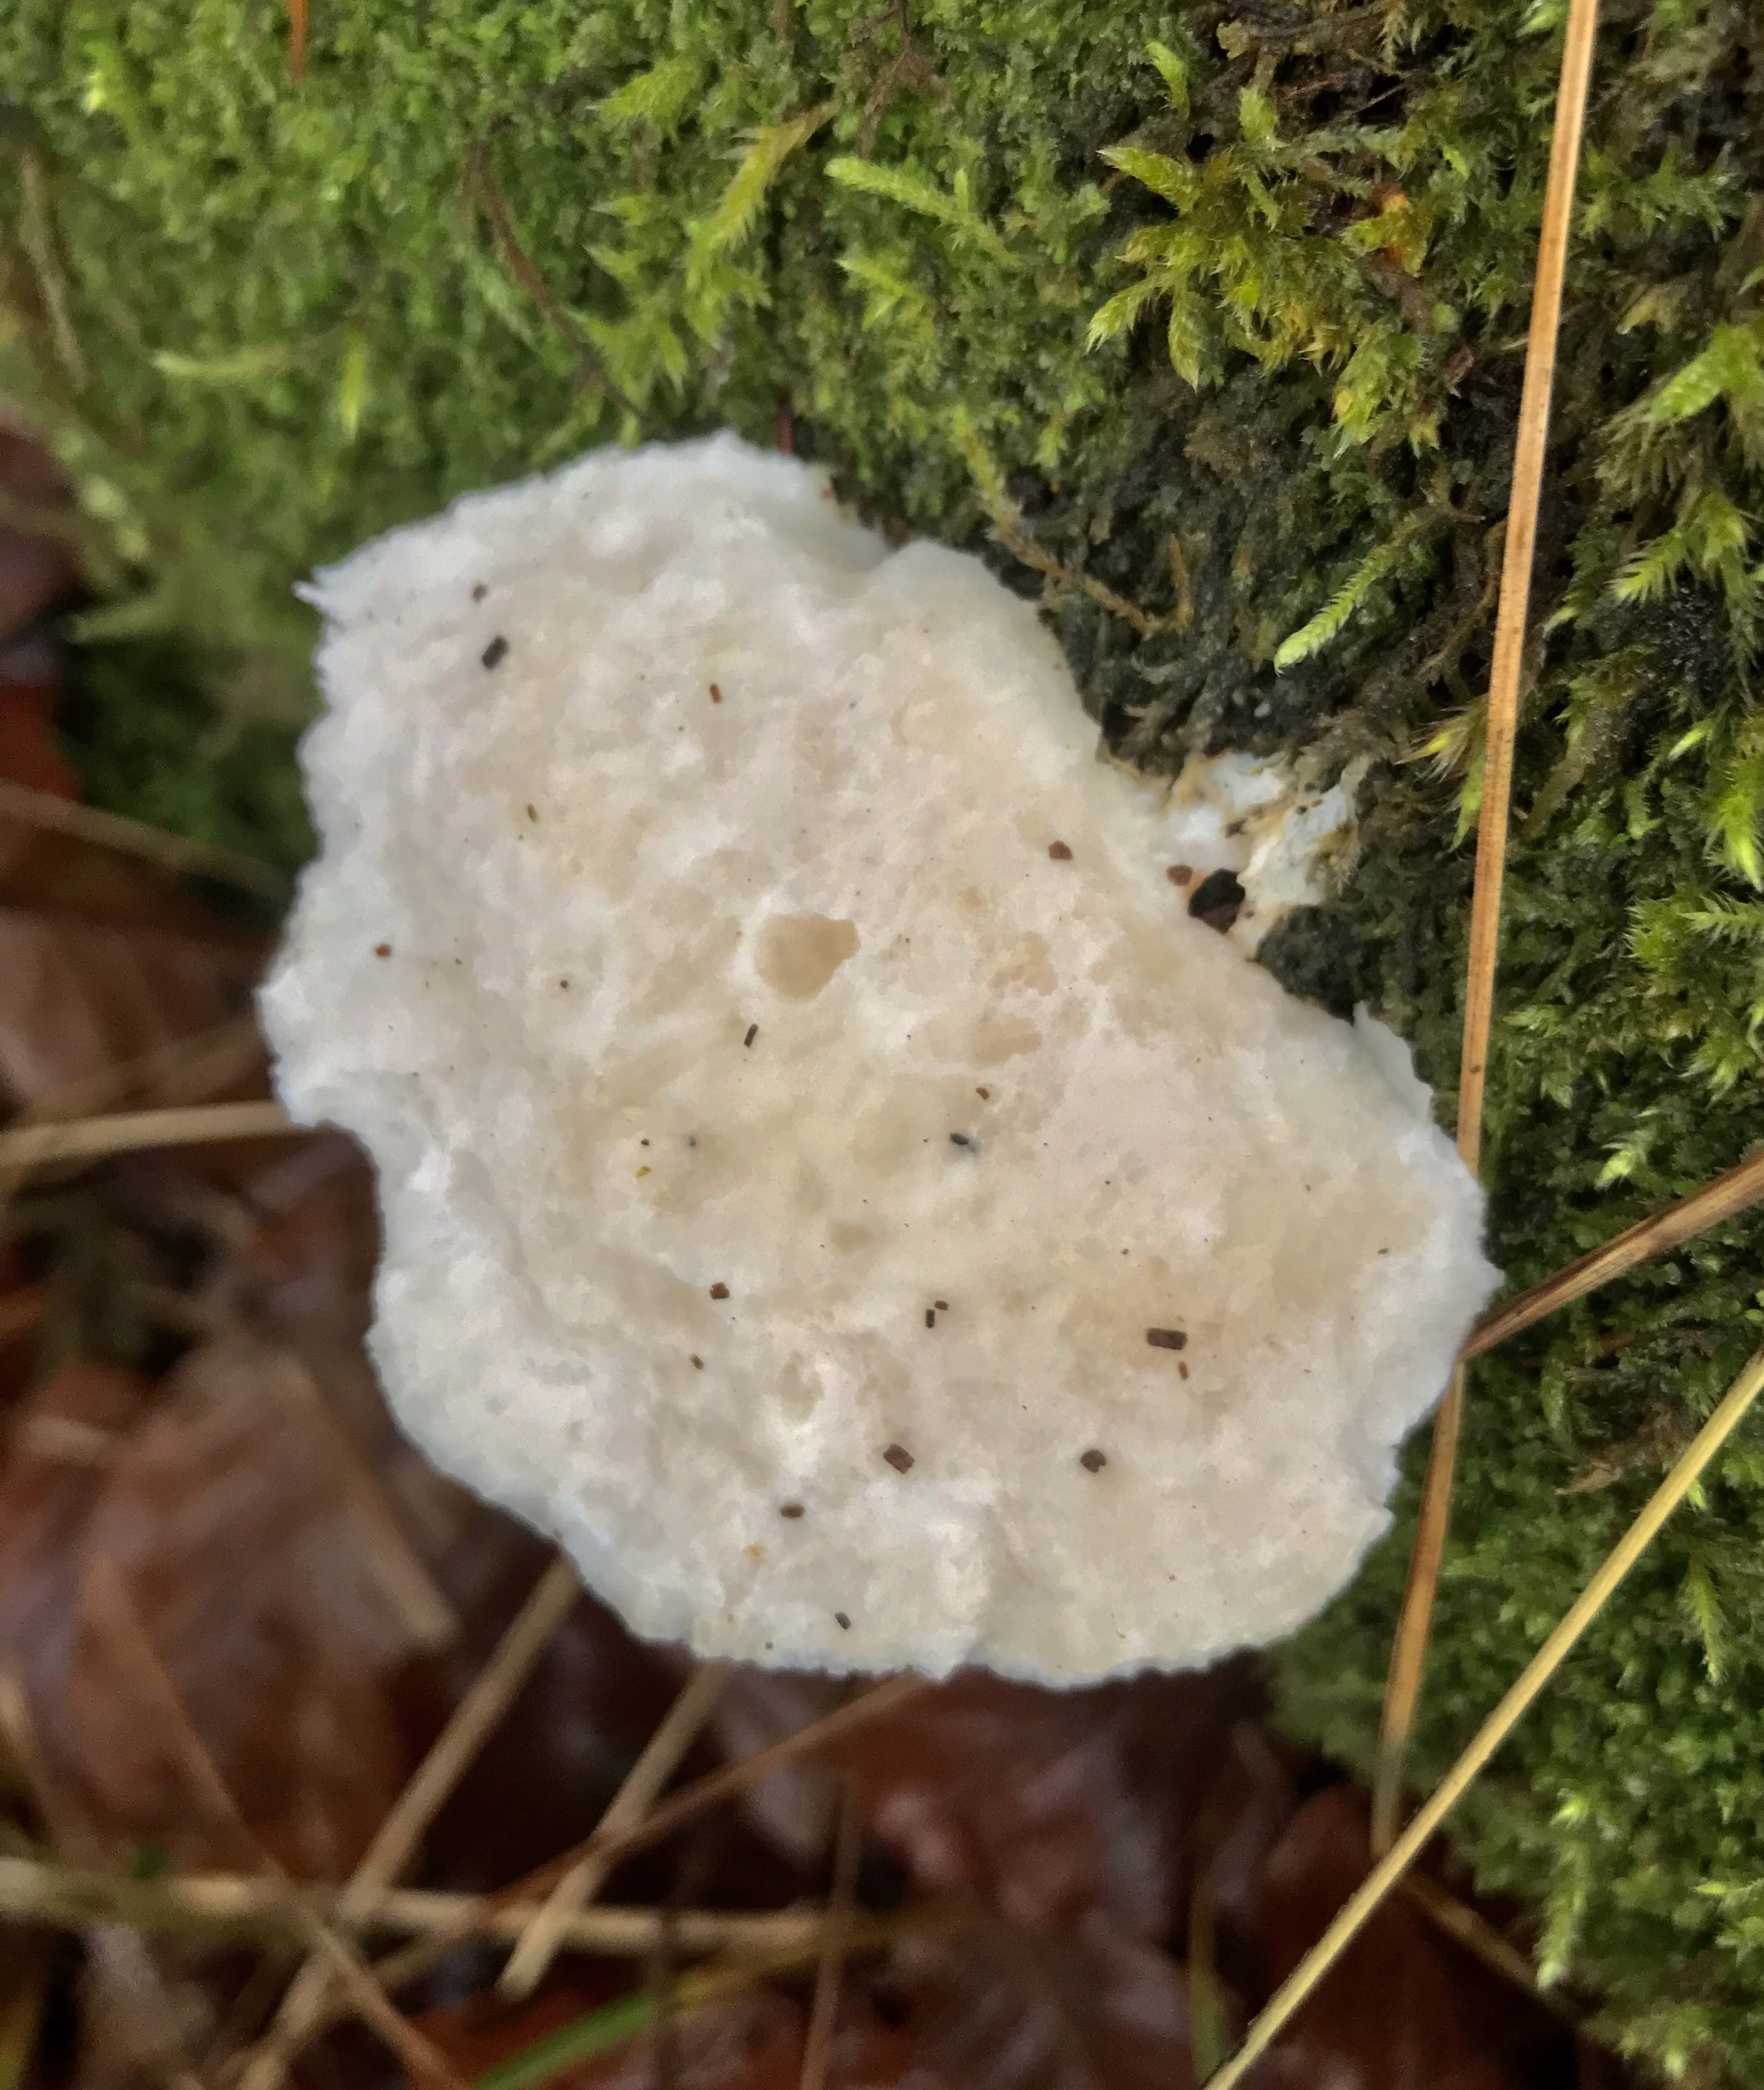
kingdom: Fungi
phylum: Basidiomycota
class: Agaricomycetes
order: Polyporales
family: Incrustoporiaceae
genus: Tyromyces
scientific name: Tyromyces lacteus
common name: mælkehvid kødporesvamp
